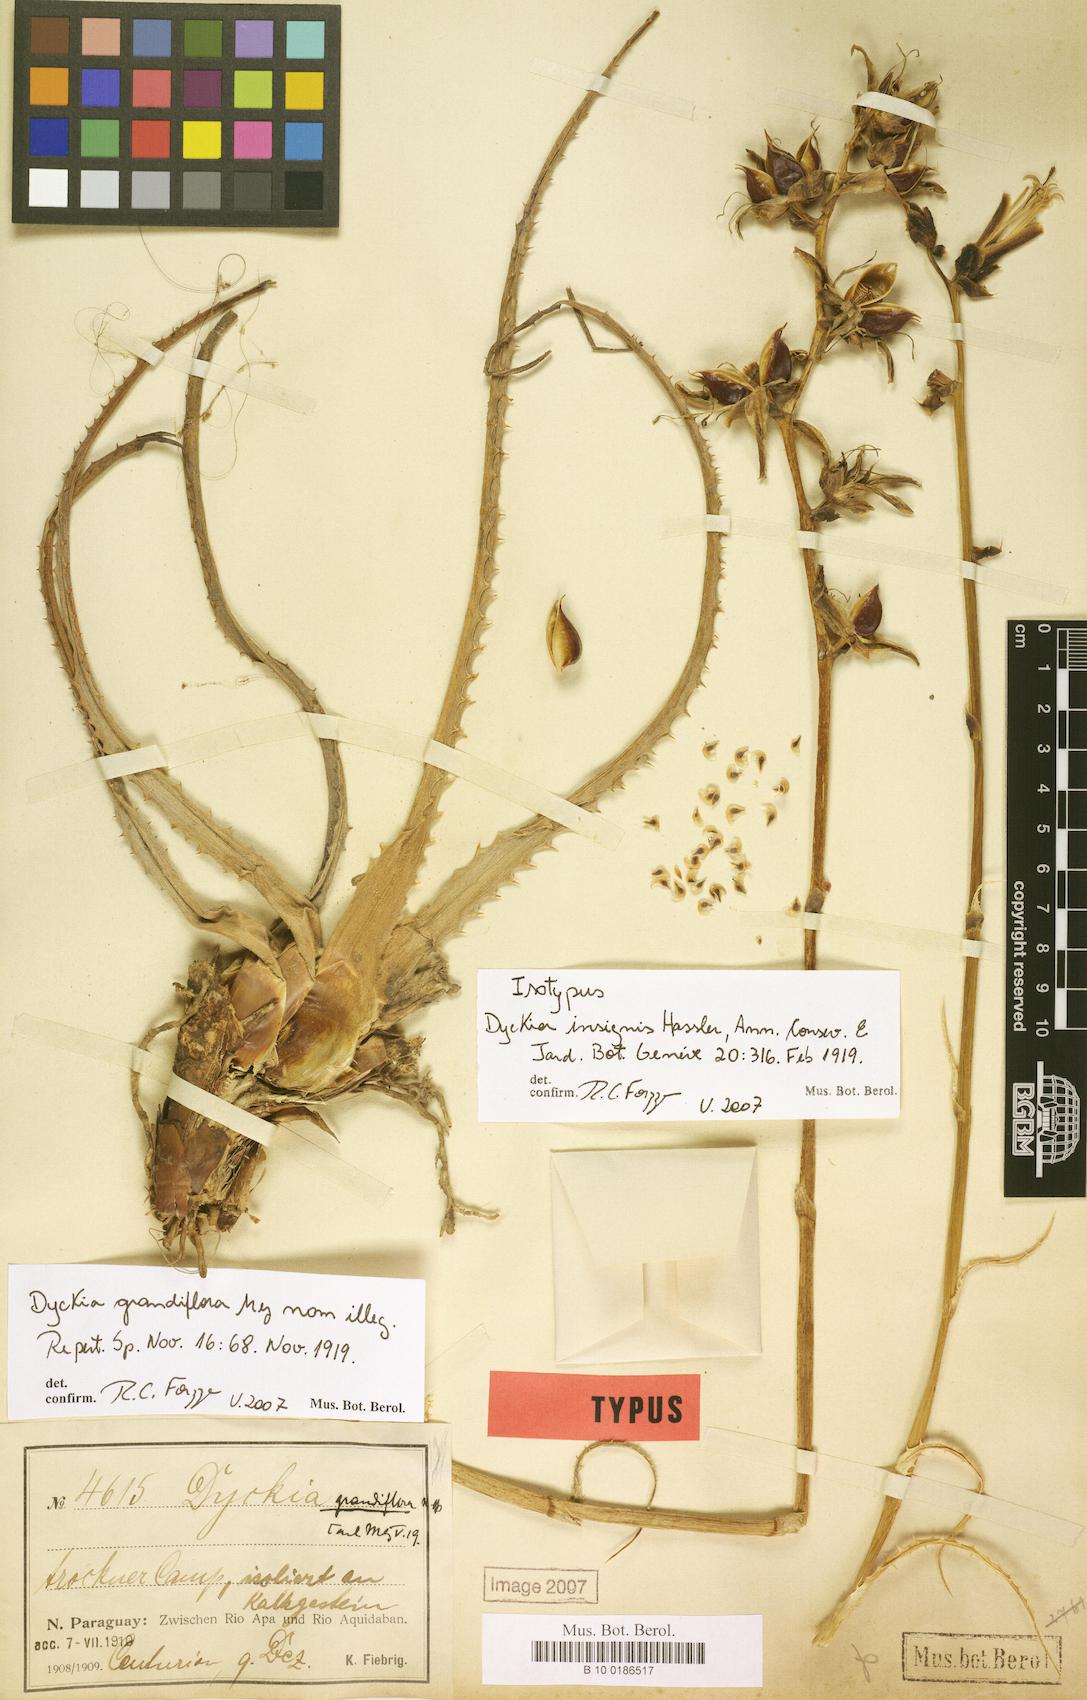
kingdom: Plantae
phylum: Tracheophyta
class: Liliopsida
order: Poales
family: Bromeliaceae
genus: Dyckia
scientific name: Dyckia insignis
